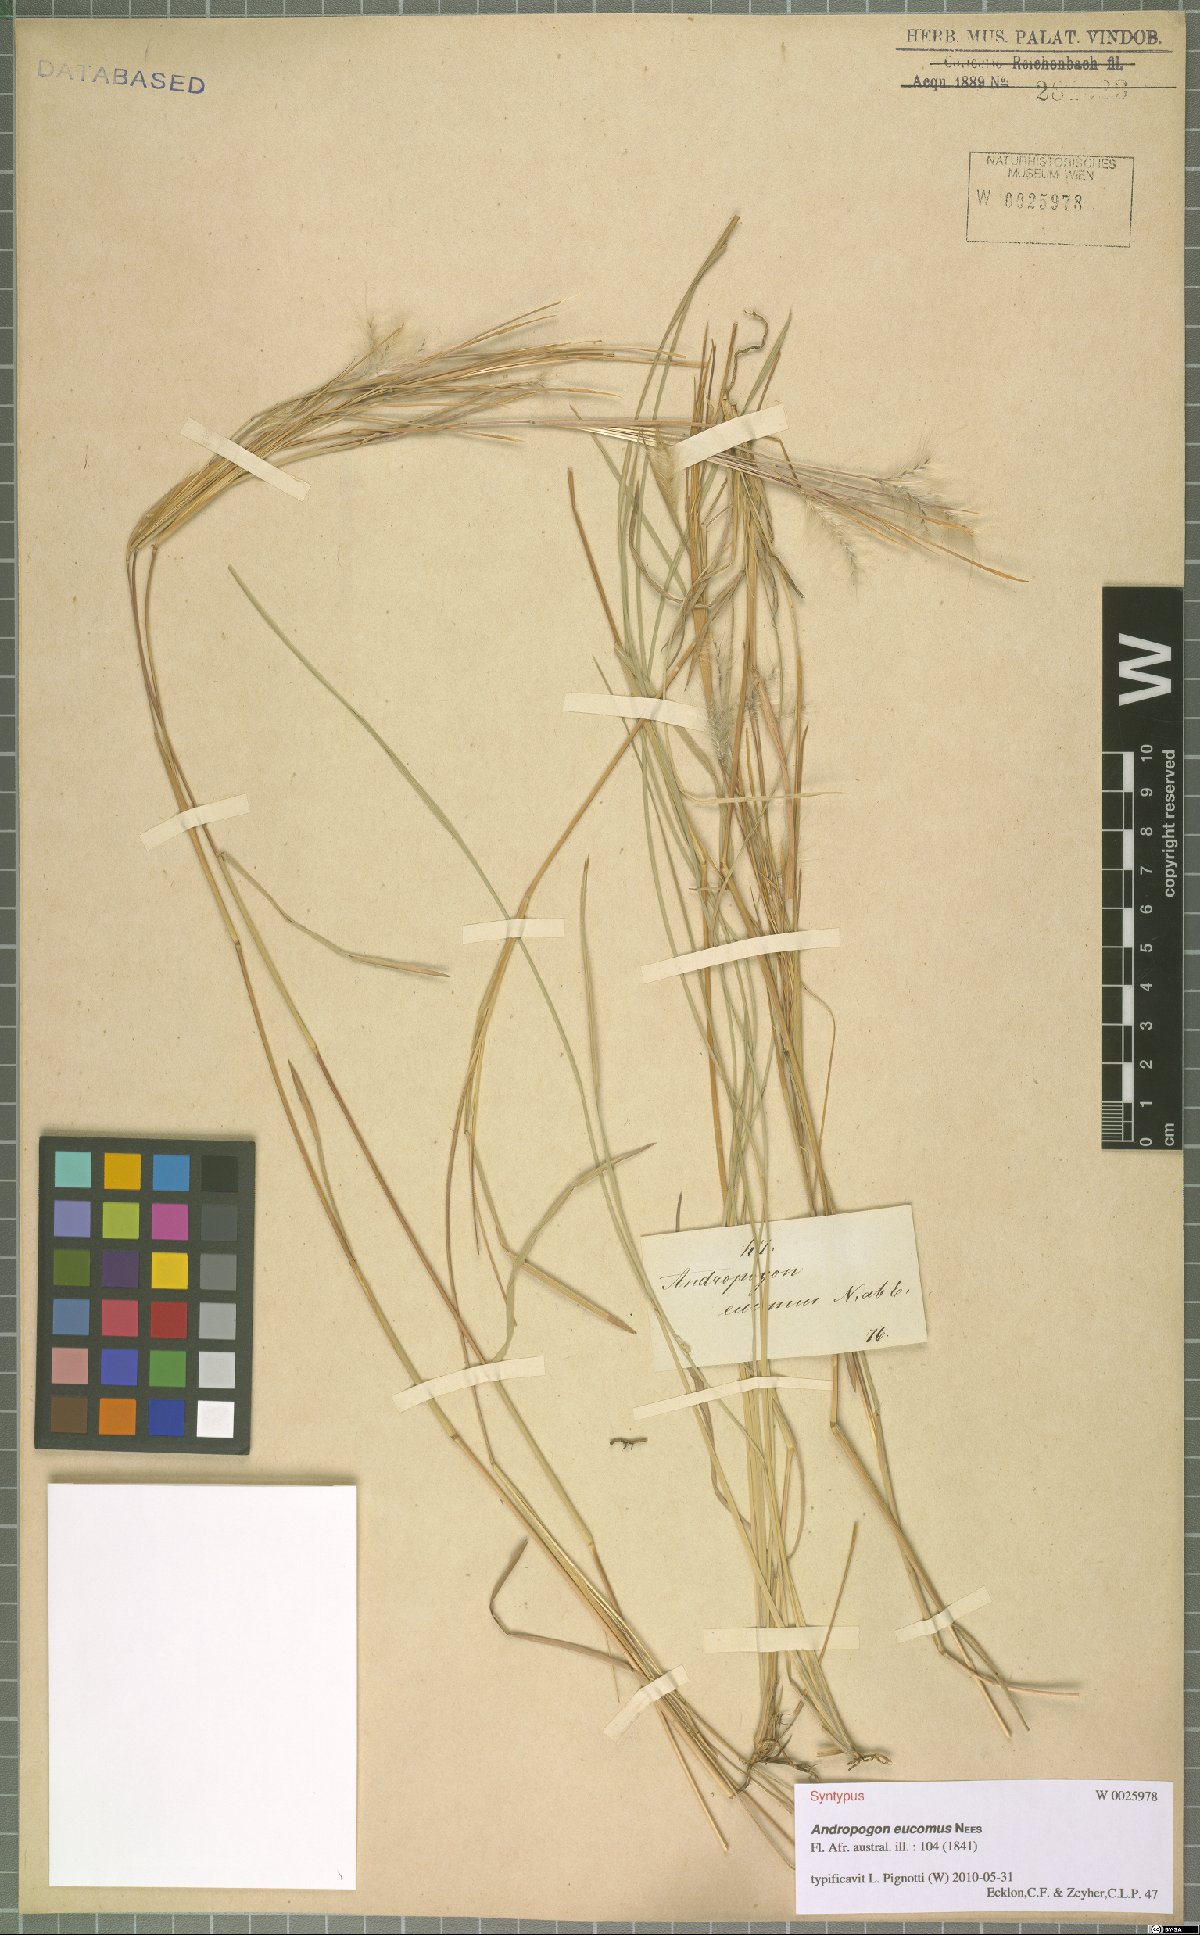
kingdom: Plantae
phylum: Tracheophyta
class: Liliopsida
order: Poales
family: Poaceae
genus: Andropogon
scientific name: Andropogon eucomus
